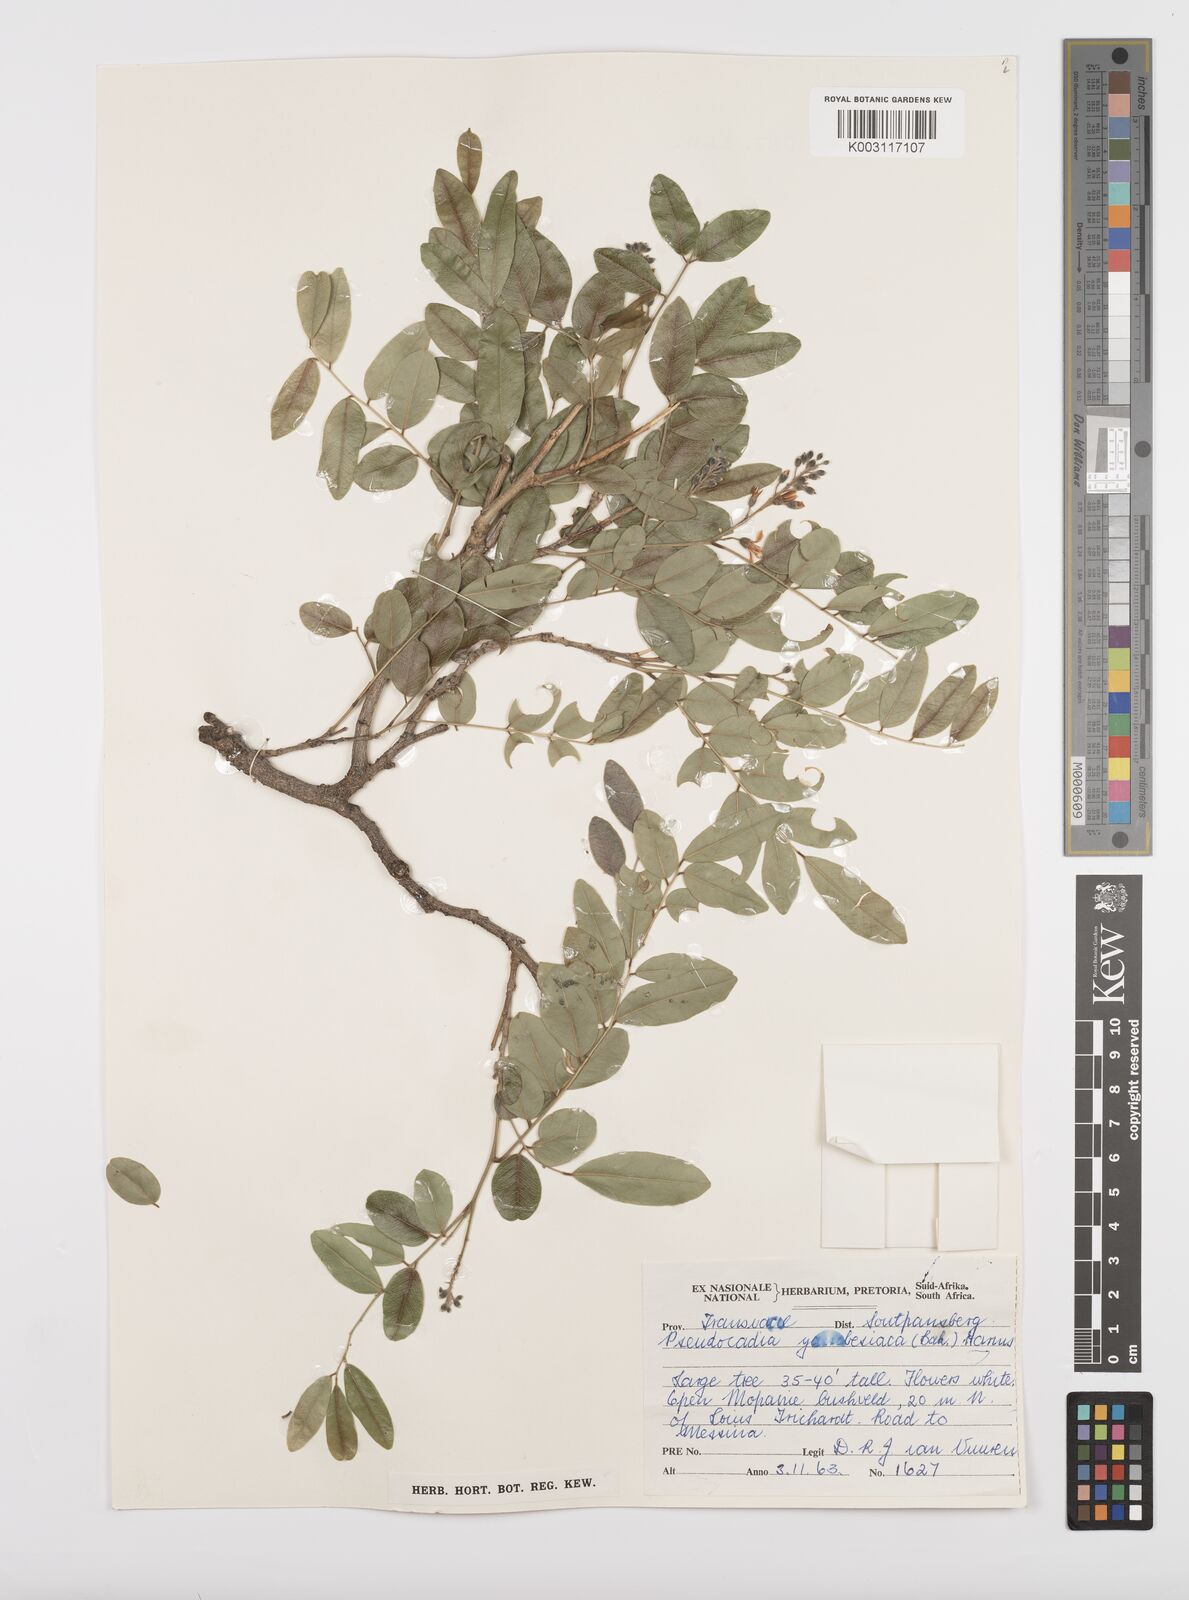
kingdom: Plantae
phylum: Tracheophyta
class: Magnoliopsida
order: Fabales
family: Fabaceae
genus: Xanthocercis
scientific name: Xanthocercis zambesiaca
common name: Nyala-tree
